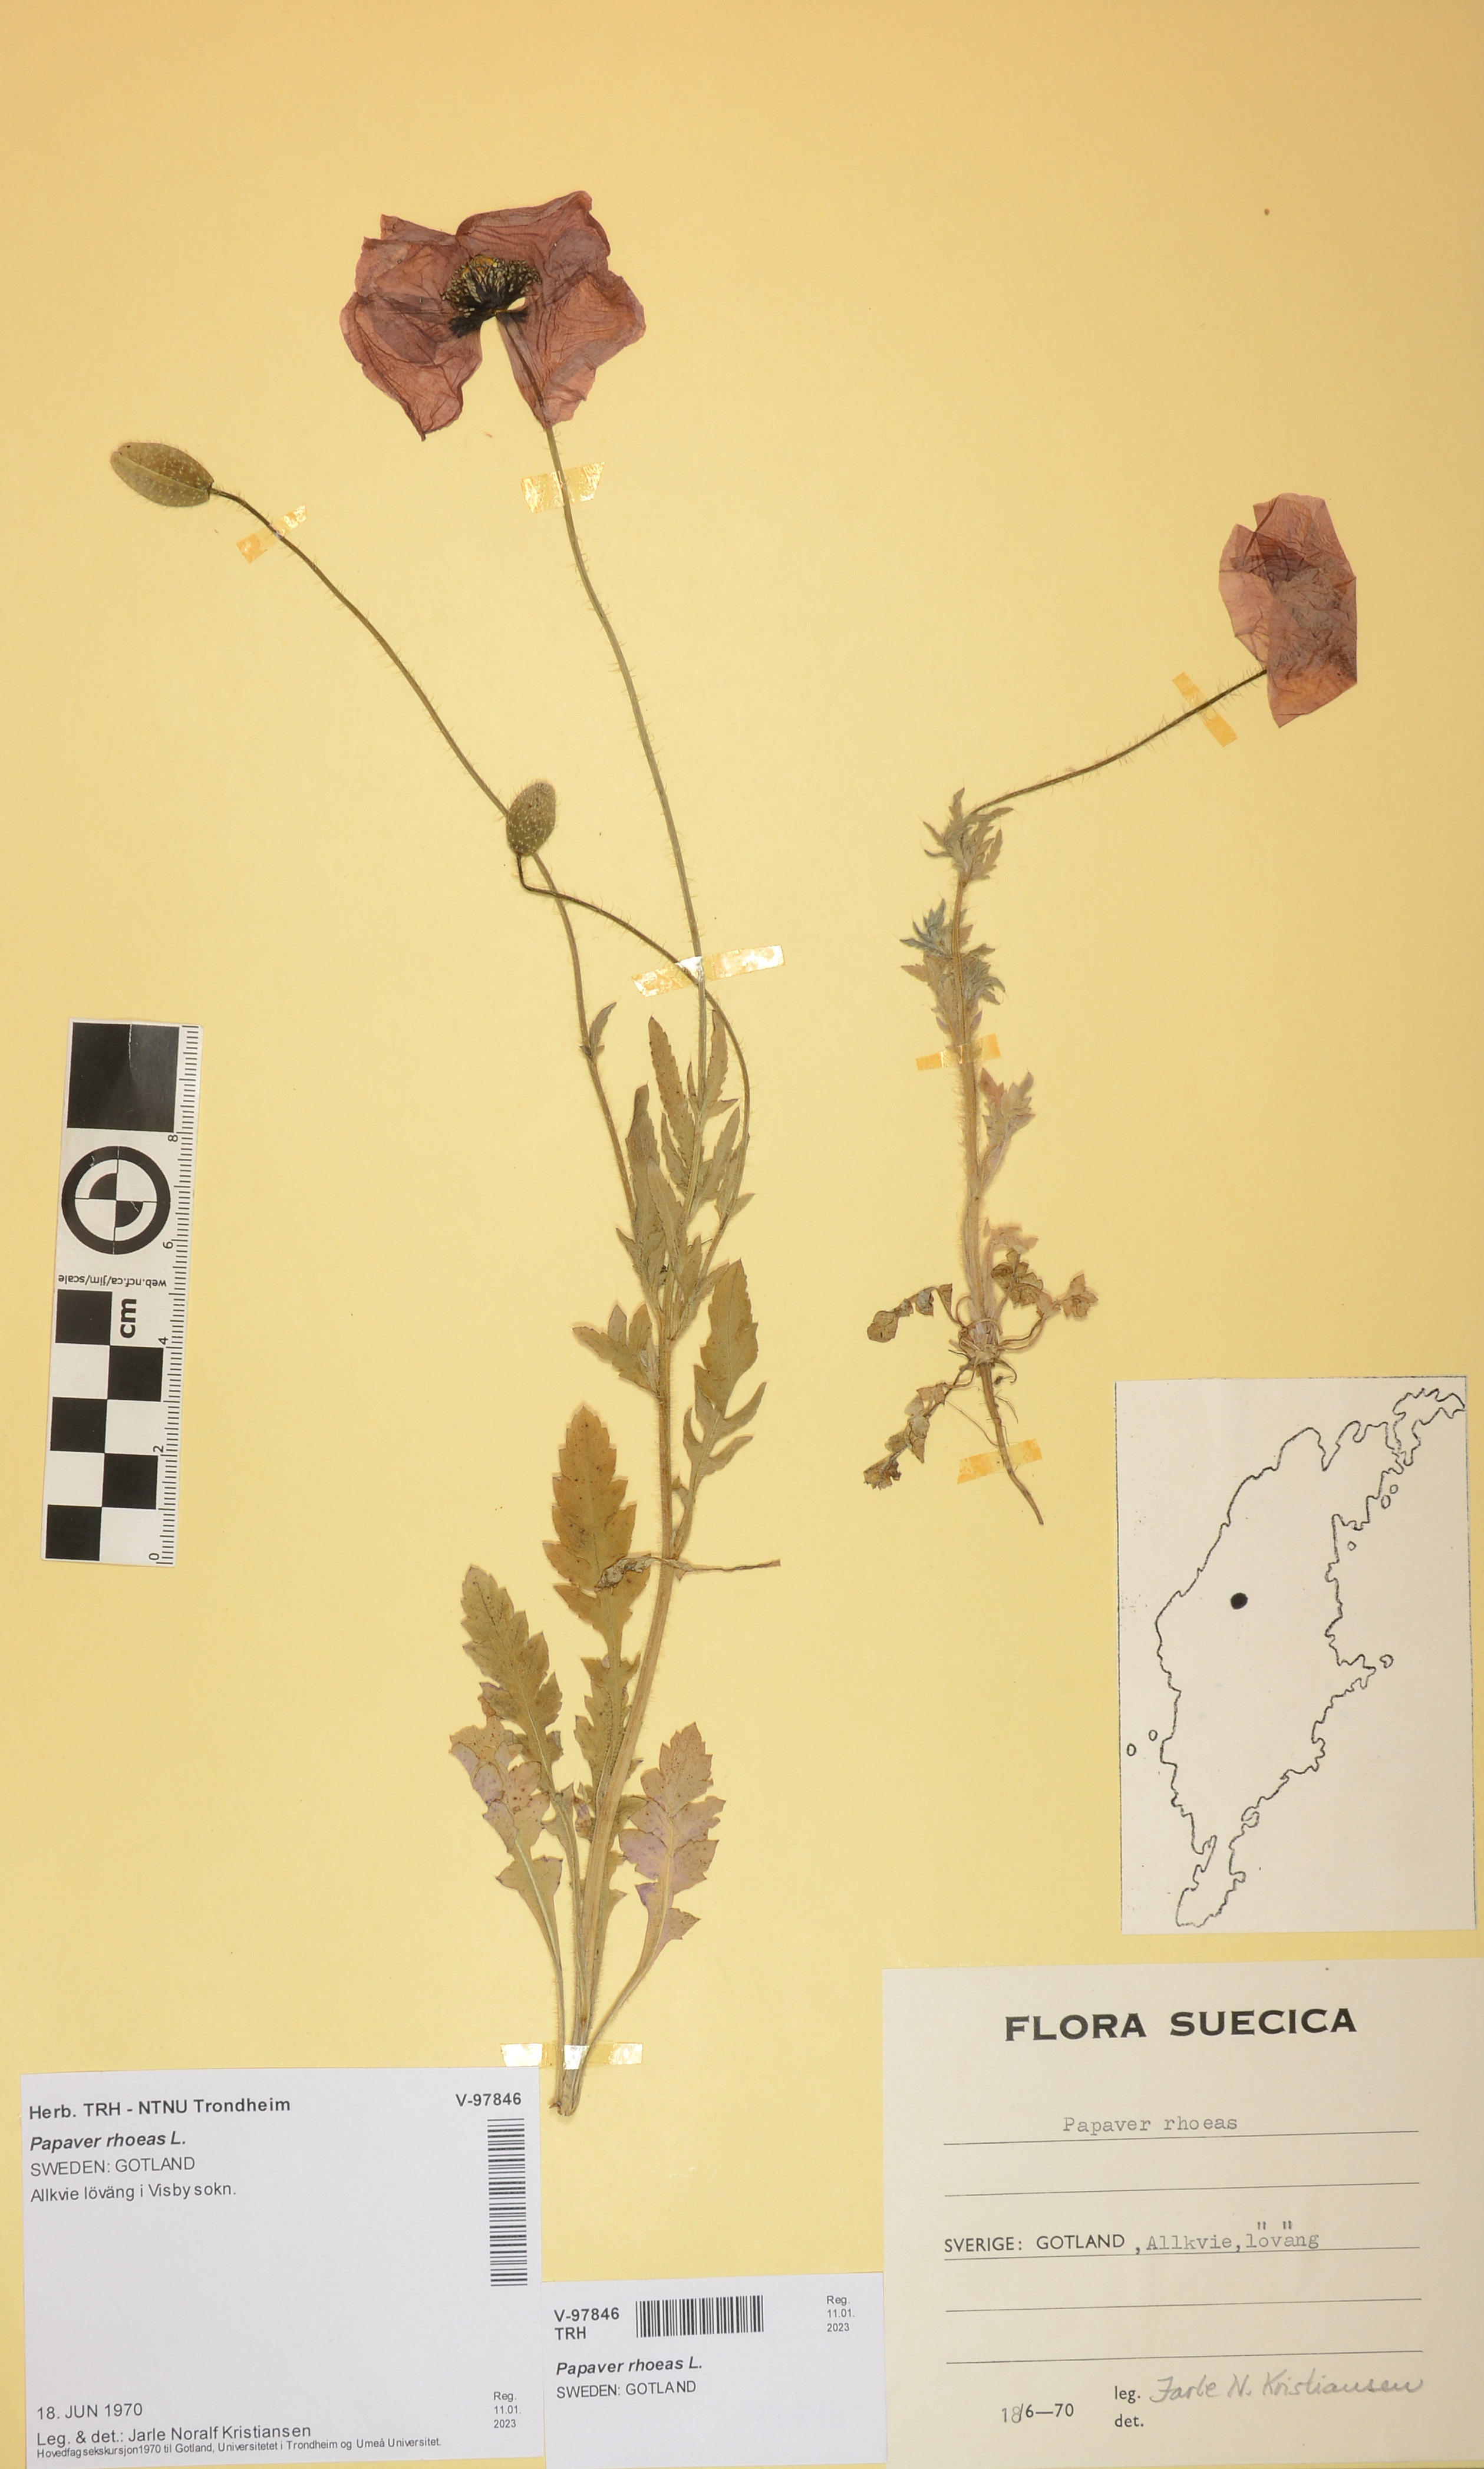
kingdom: Plantae
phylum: Tracheophyta
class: Magnoliopsida
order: Ranunculales
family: Papaveraceae
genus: Papaver
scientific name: Papaver rhoeas
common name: Corn poppy
